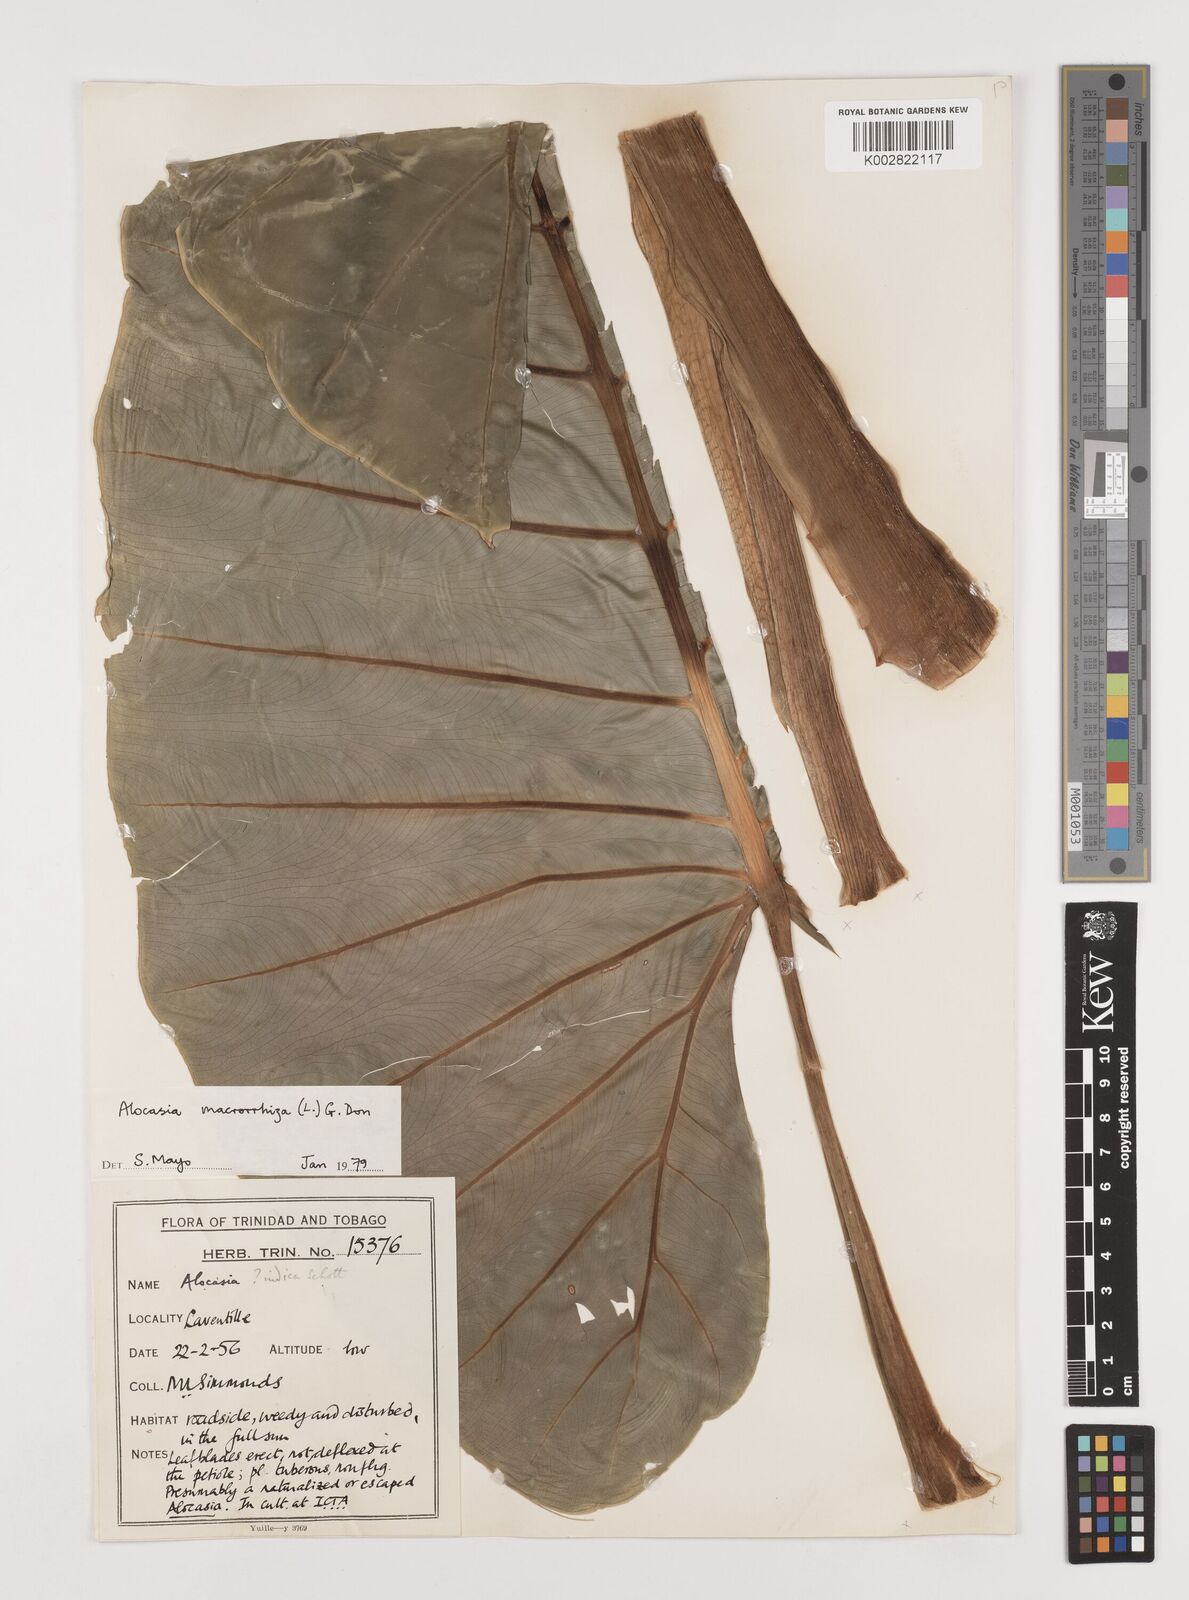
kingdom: Plantae
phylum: Tracheophyta
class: Liliopsida
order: Alismatales
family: Araceae
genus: Alocasia
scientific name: Alocasia macrorrhizos
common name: Giant taro
